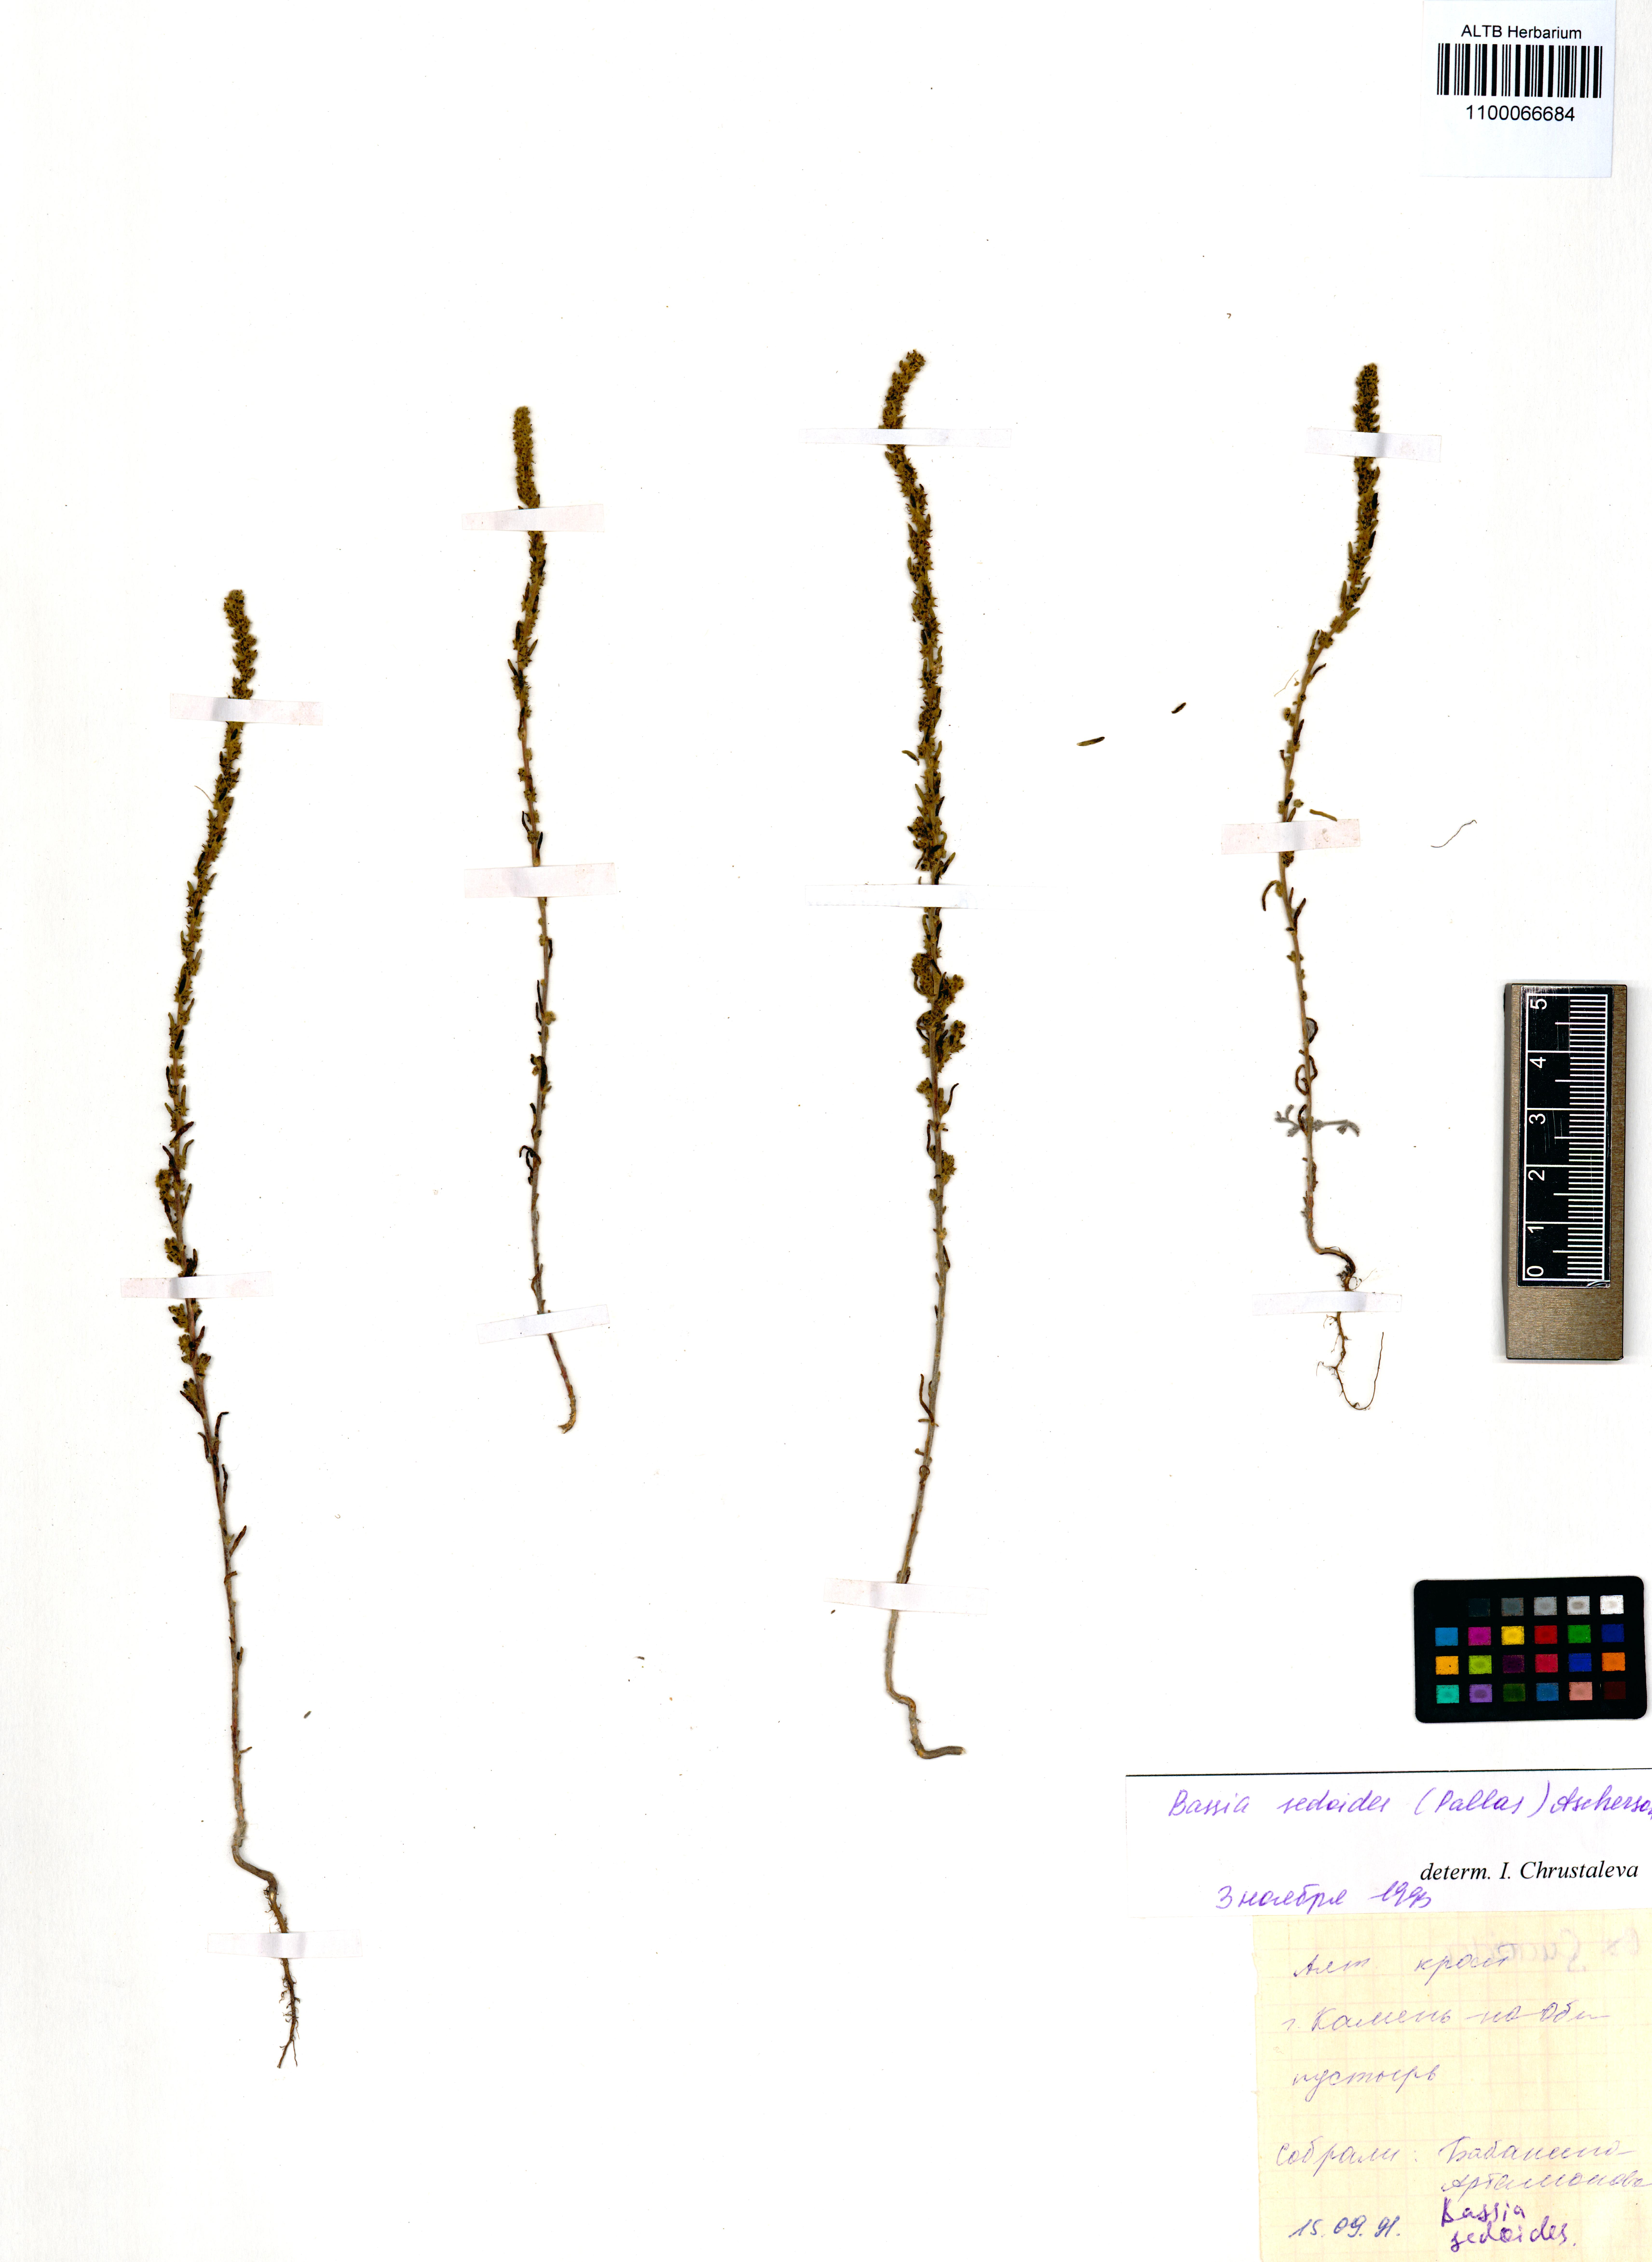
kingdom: Plantae
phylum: Tracheophyta
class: Magnoliopsida
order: Caryophyllales
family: Amaranthaceae
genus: Sedobassia
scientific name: Sedobassia sedoides
